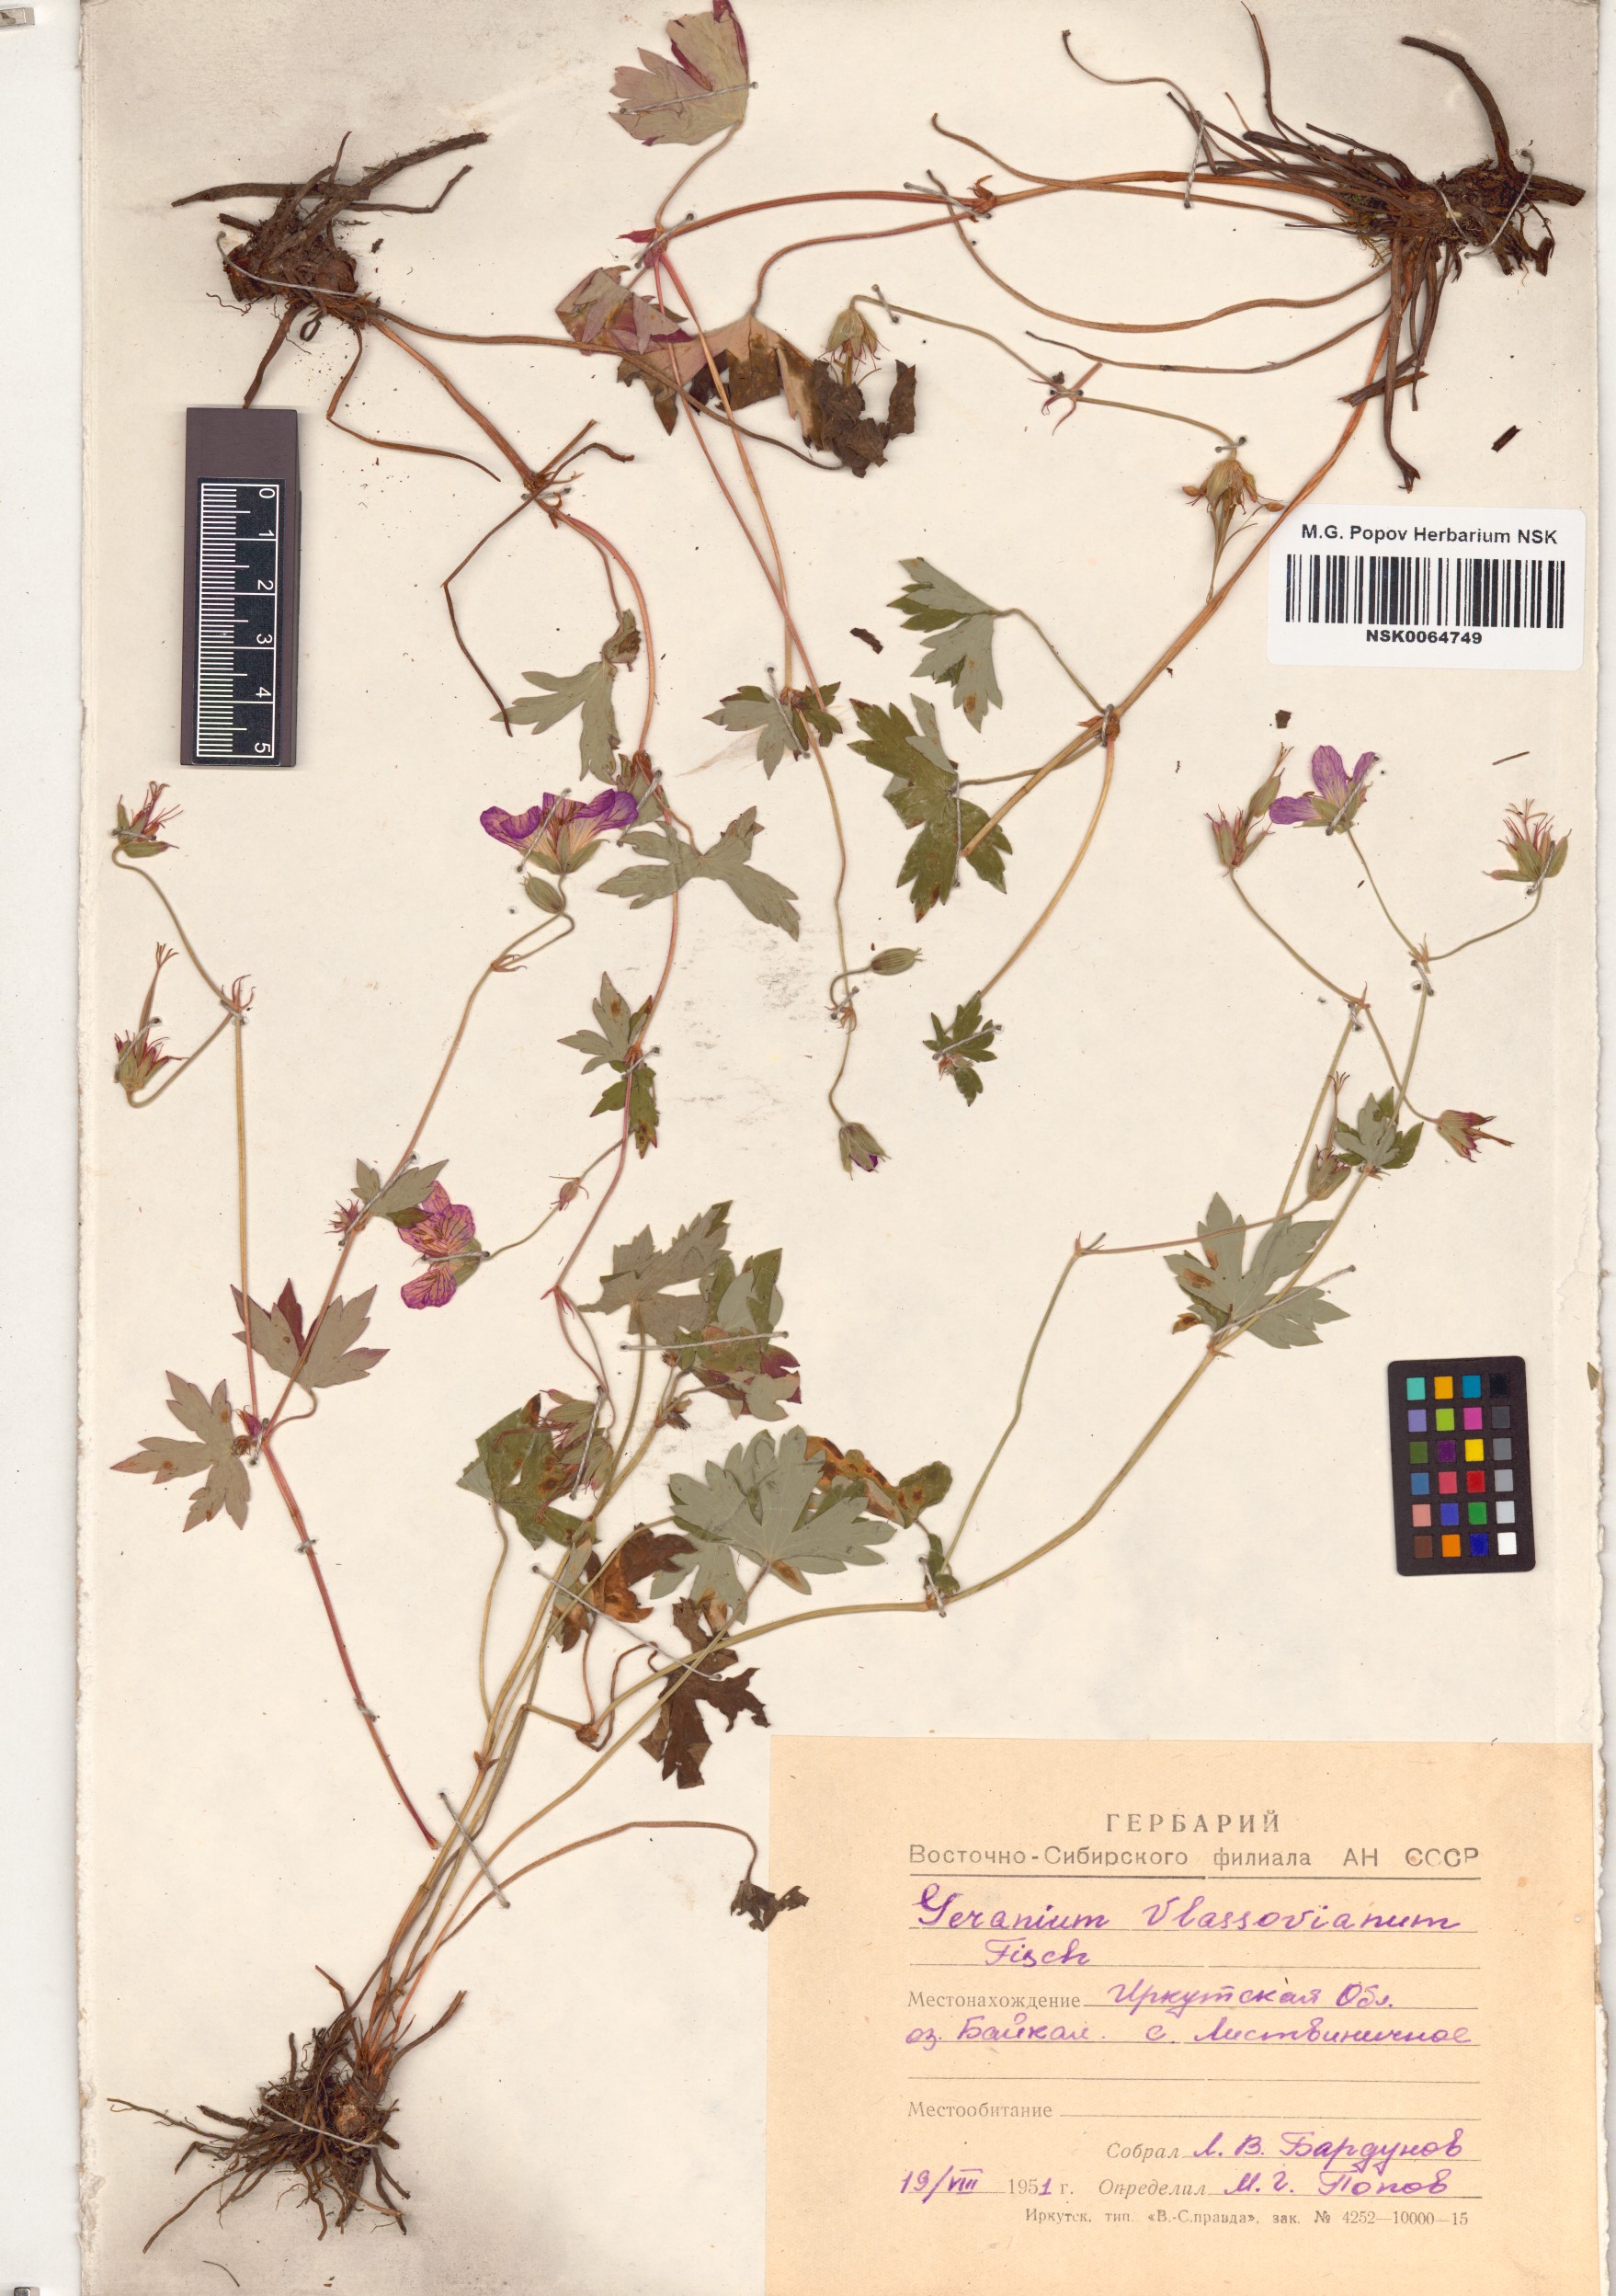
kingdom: Plantae
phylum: Tracheophyta
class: Magnoliopsida
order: Geraniales
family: Geraniaceae
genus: Geranium
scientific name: Geranium wlassovianum
